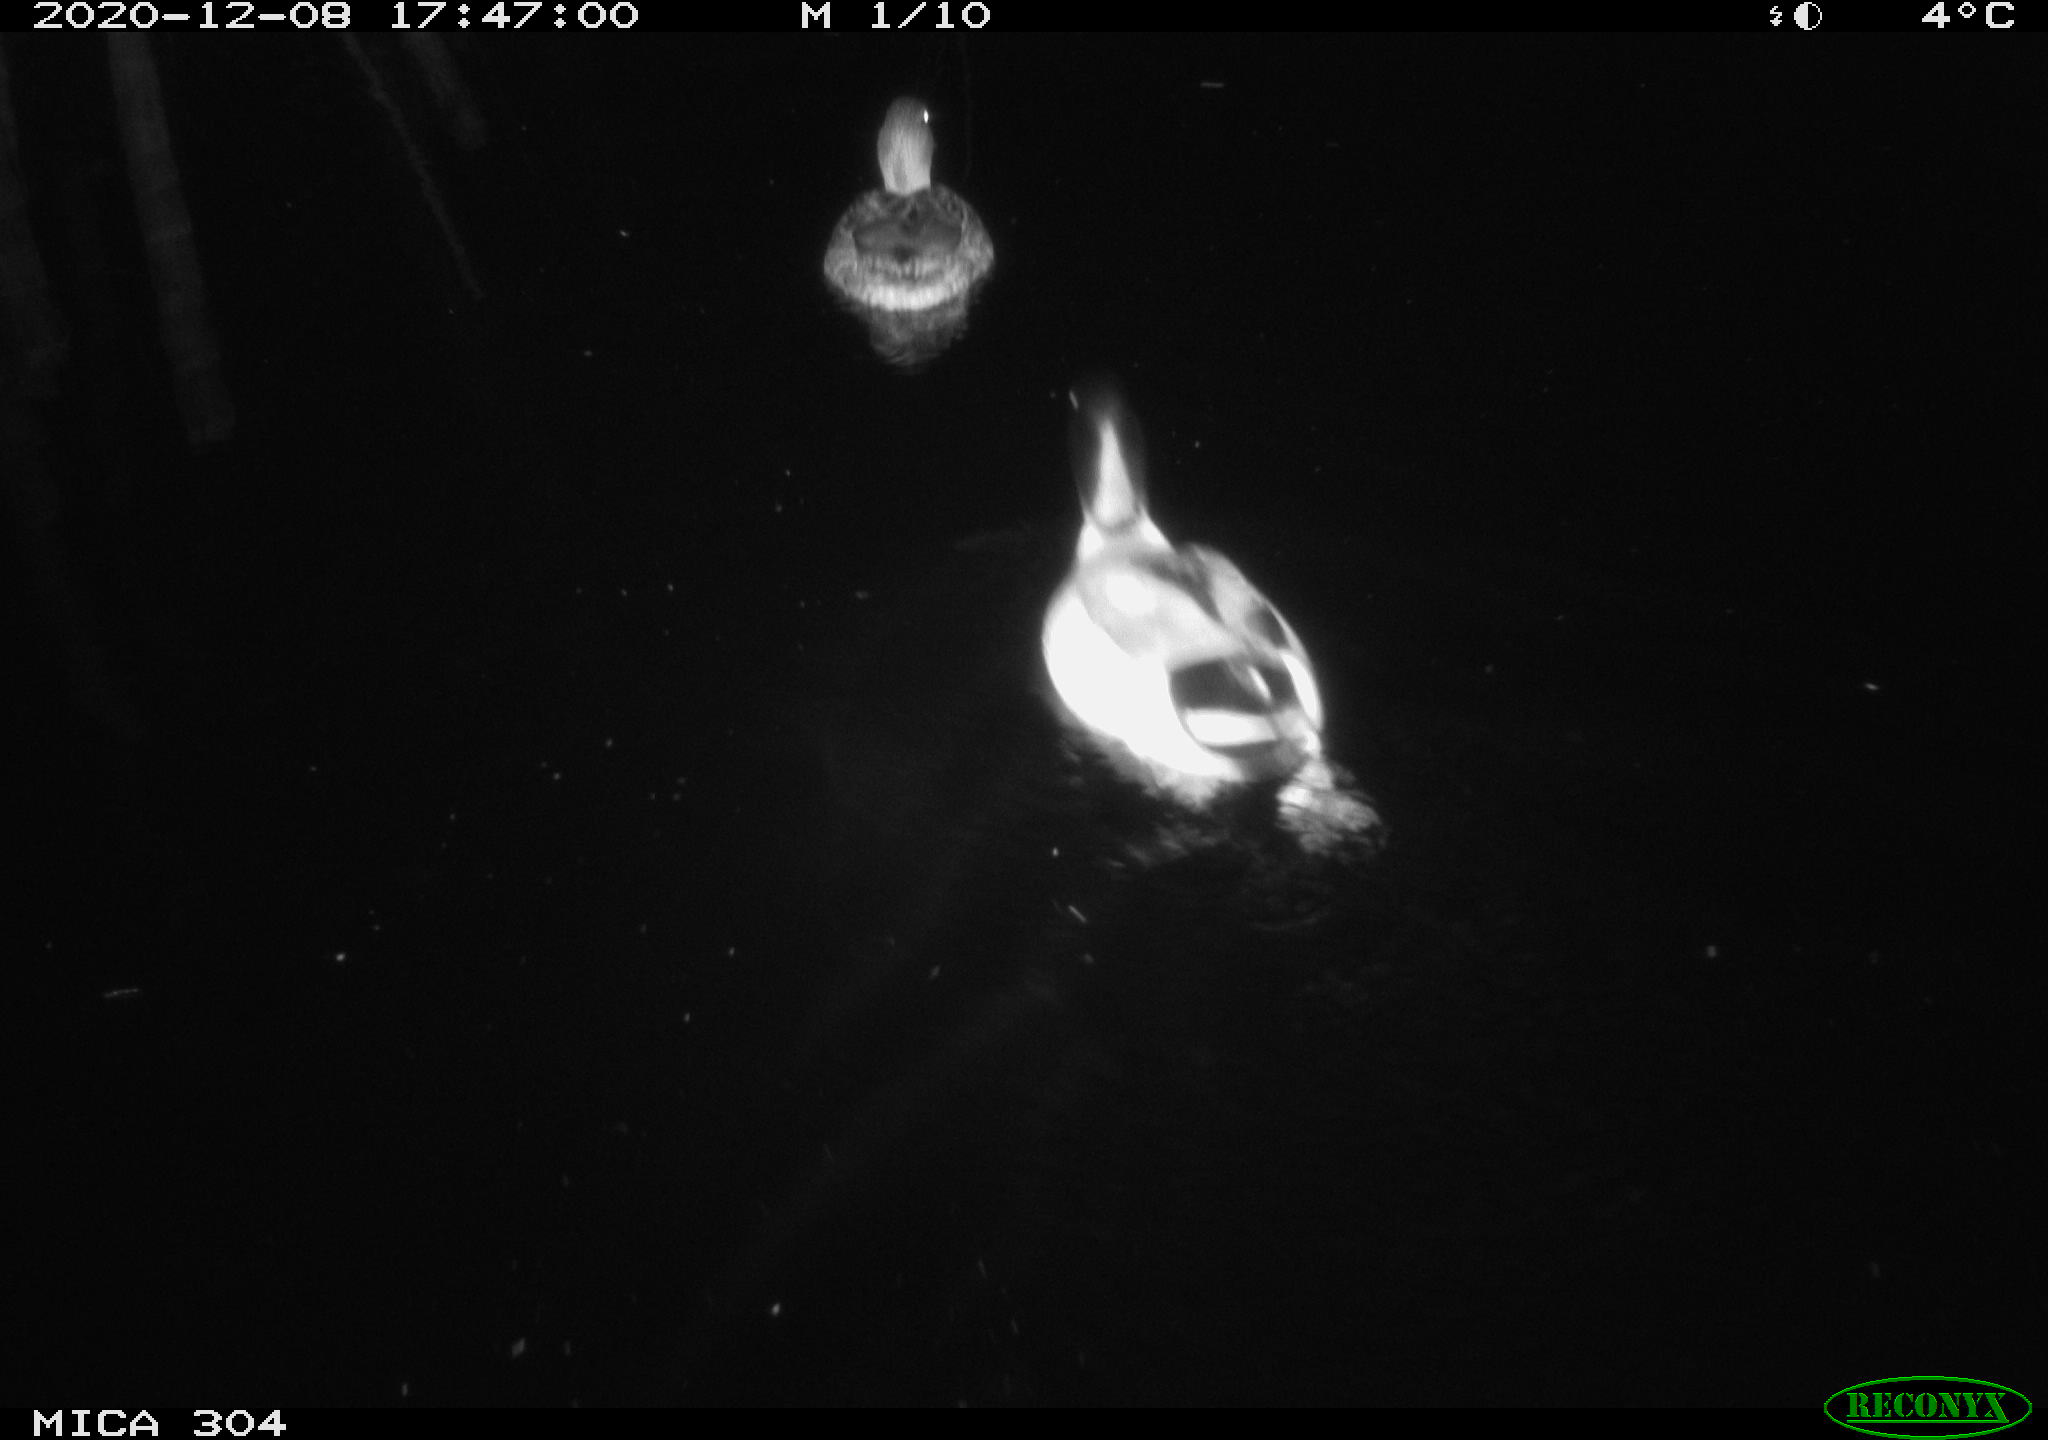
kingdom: Animalia
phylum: Chordata
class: Aves
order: Anseriformes
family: Anatidae
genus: Anas
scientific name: Anas platyrhynchos
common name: Mallard
